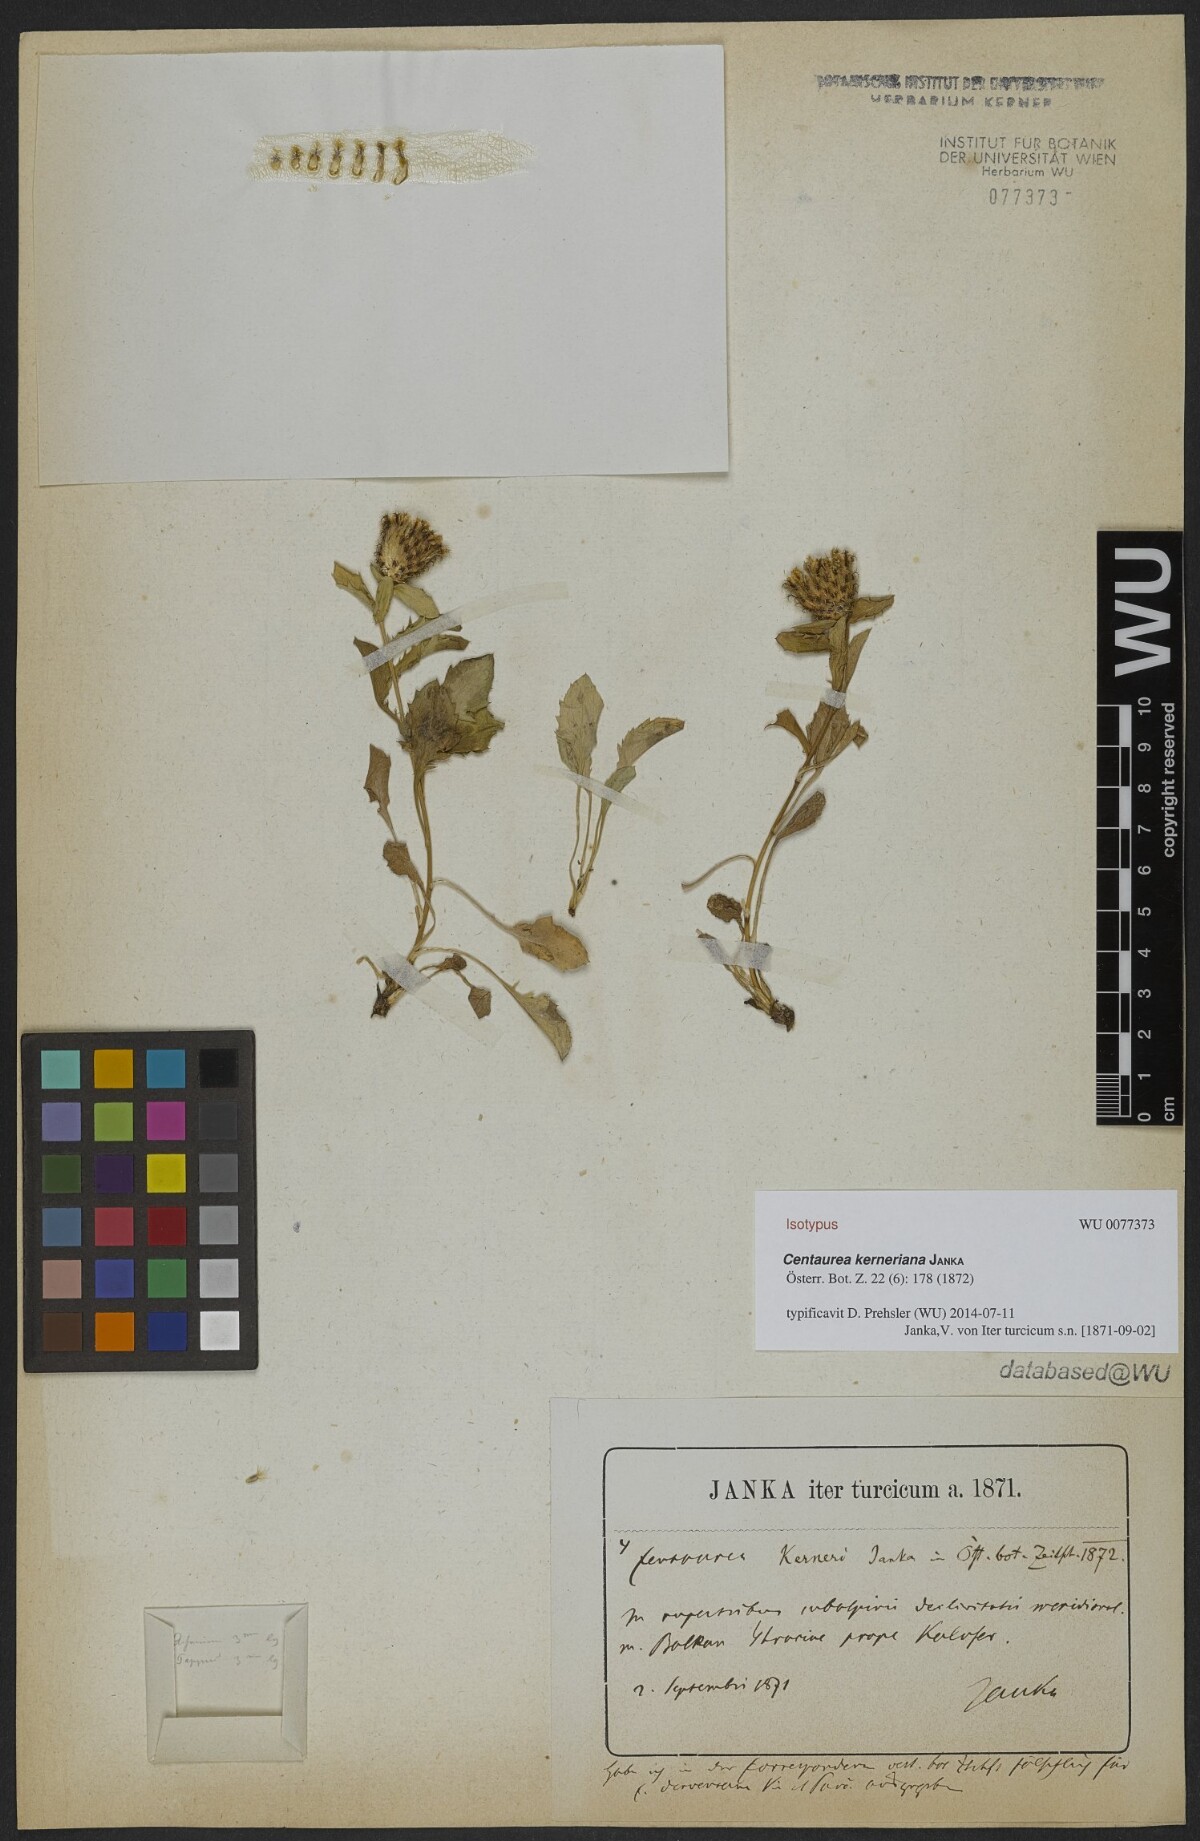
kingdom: Plantae
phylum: Tracheophyta
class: Magnoliopsida
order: Asterales
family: Asteraceae
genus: Centaurea
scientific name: Centaurea kerneriana
